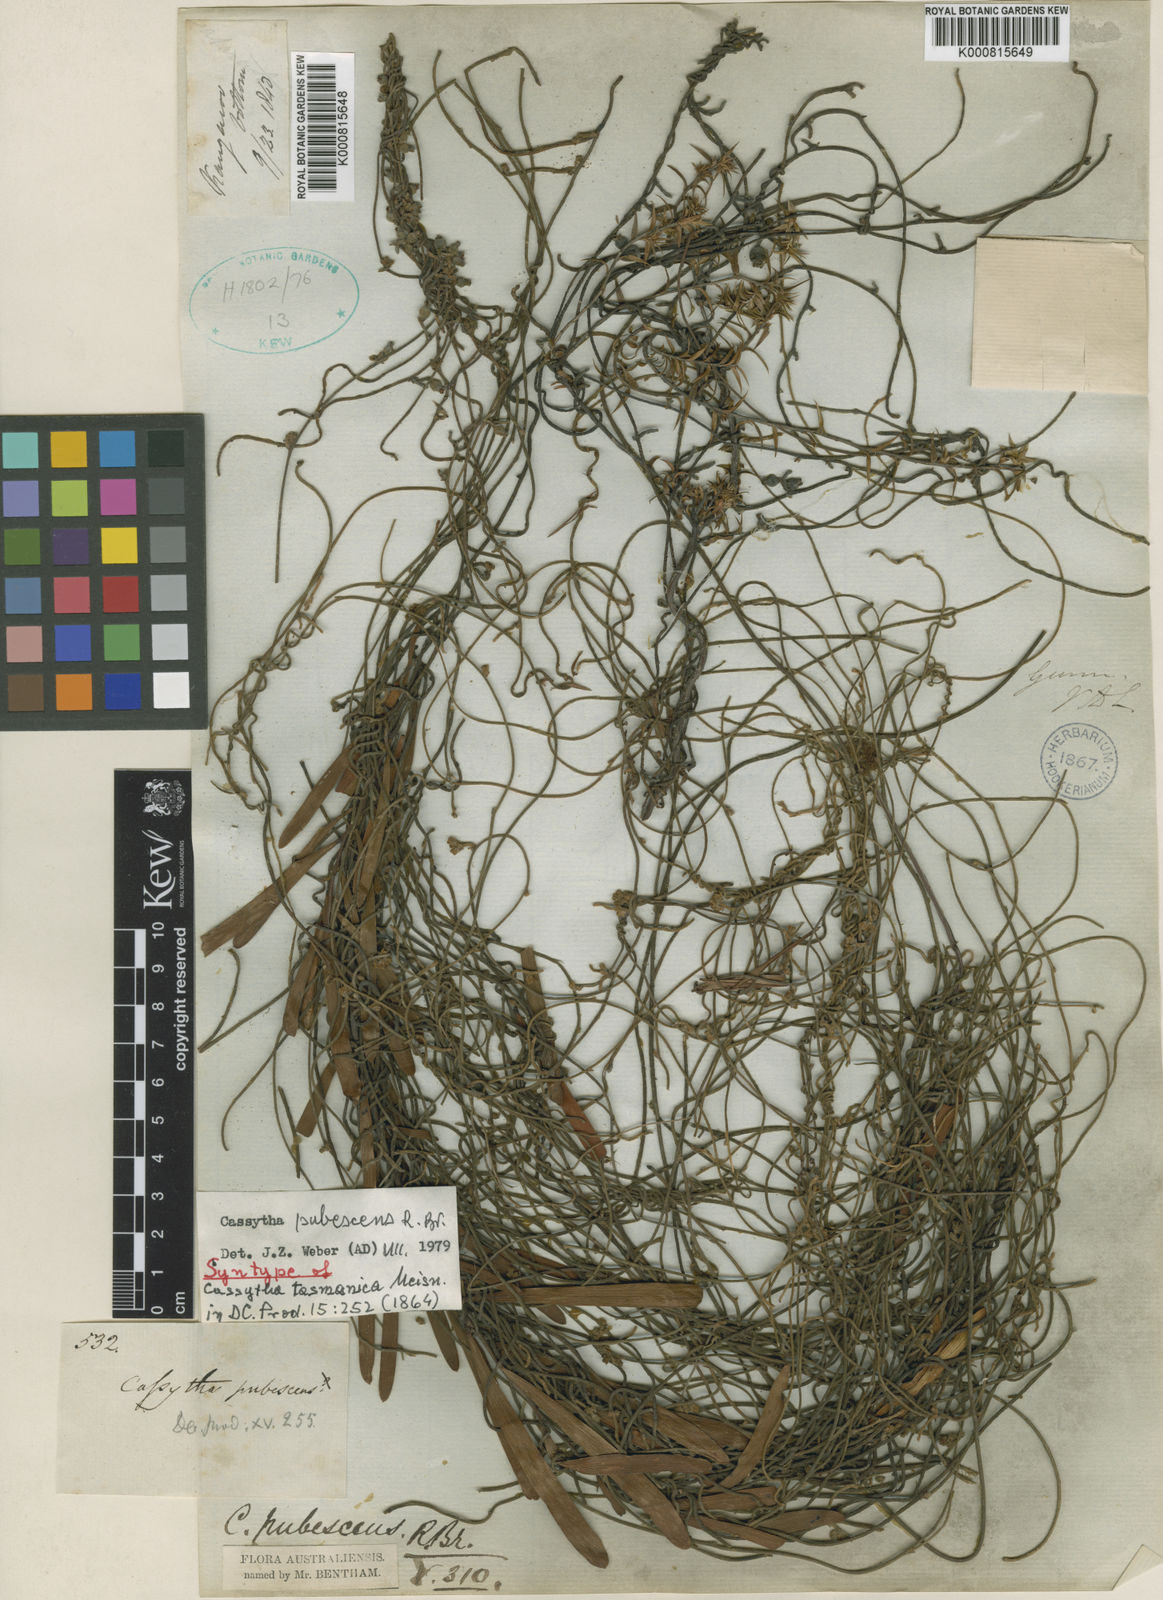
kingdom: Plantae
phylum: Tracheophyta
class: Magnoliopsida
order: Laurales
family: Lauraceae
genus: Cassytha
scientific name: Cassytha pubescens
